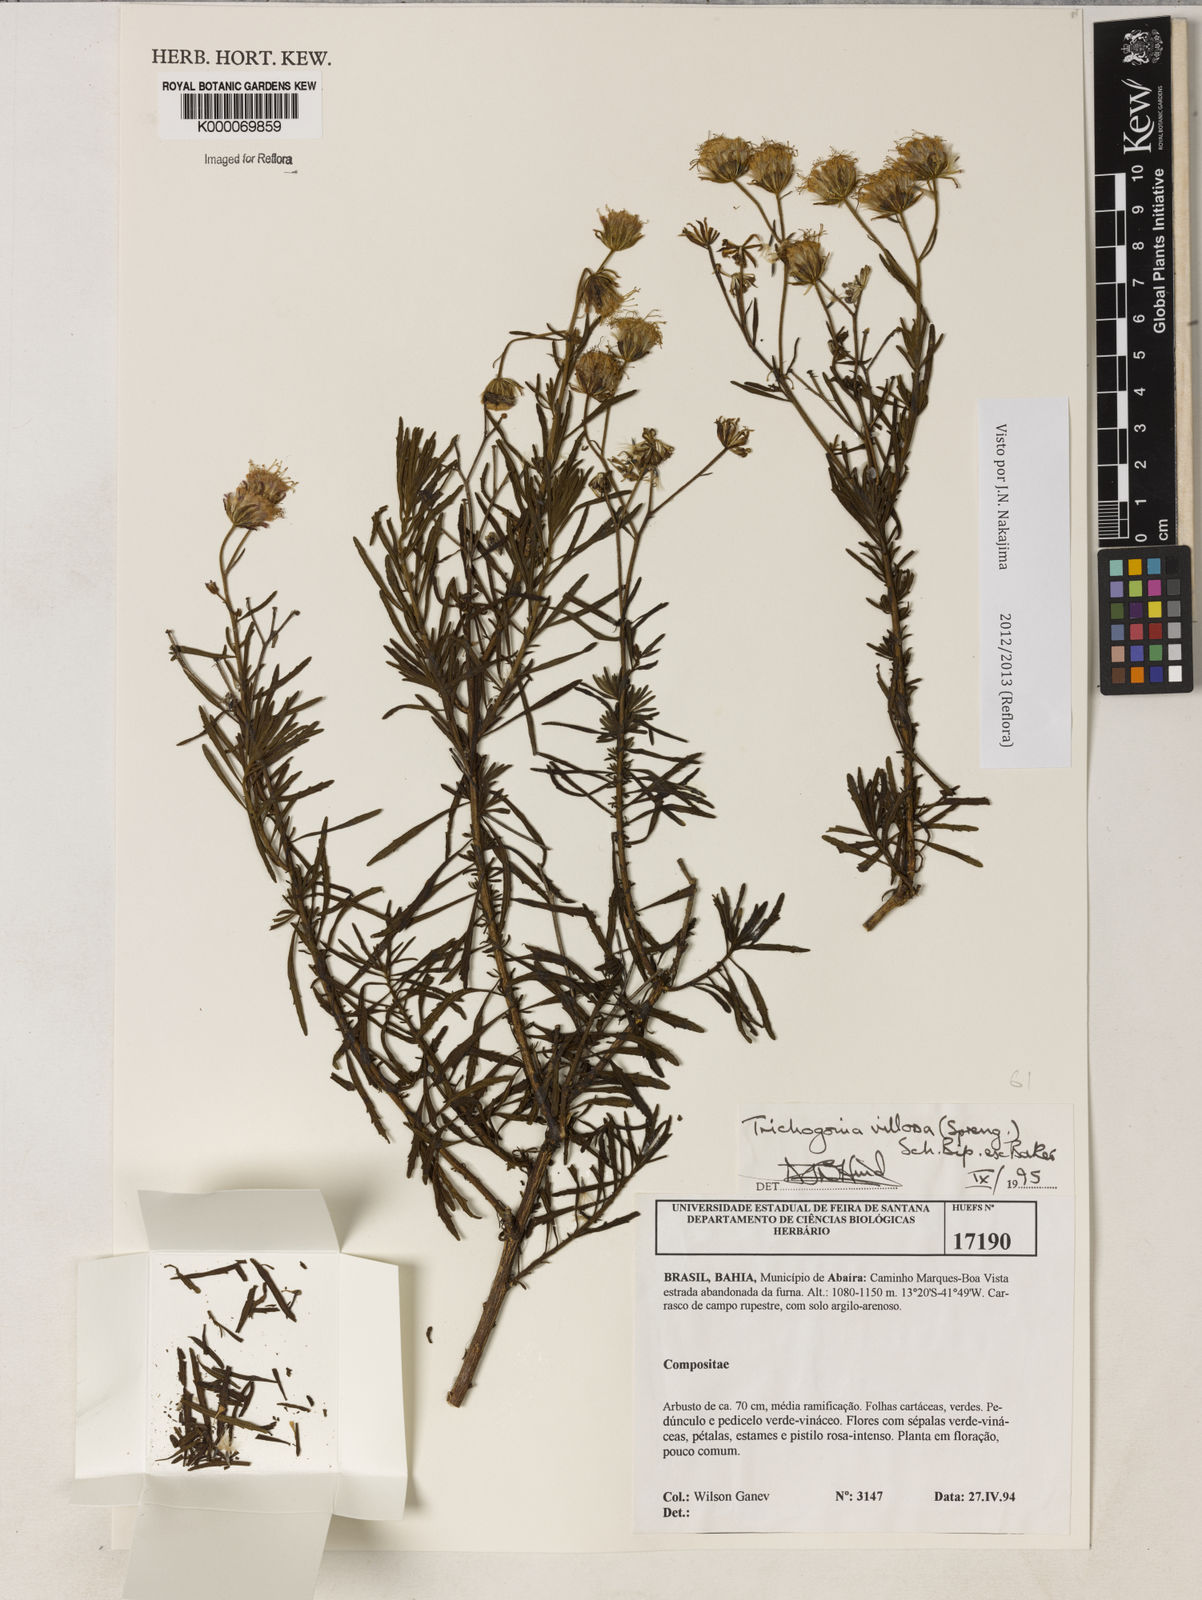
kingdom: Plantae
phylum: Tracheophyta
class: Magnoliopsida
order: Asterales
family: Asteraceae
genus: Trichogonia
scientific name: Trichogonia villosa
